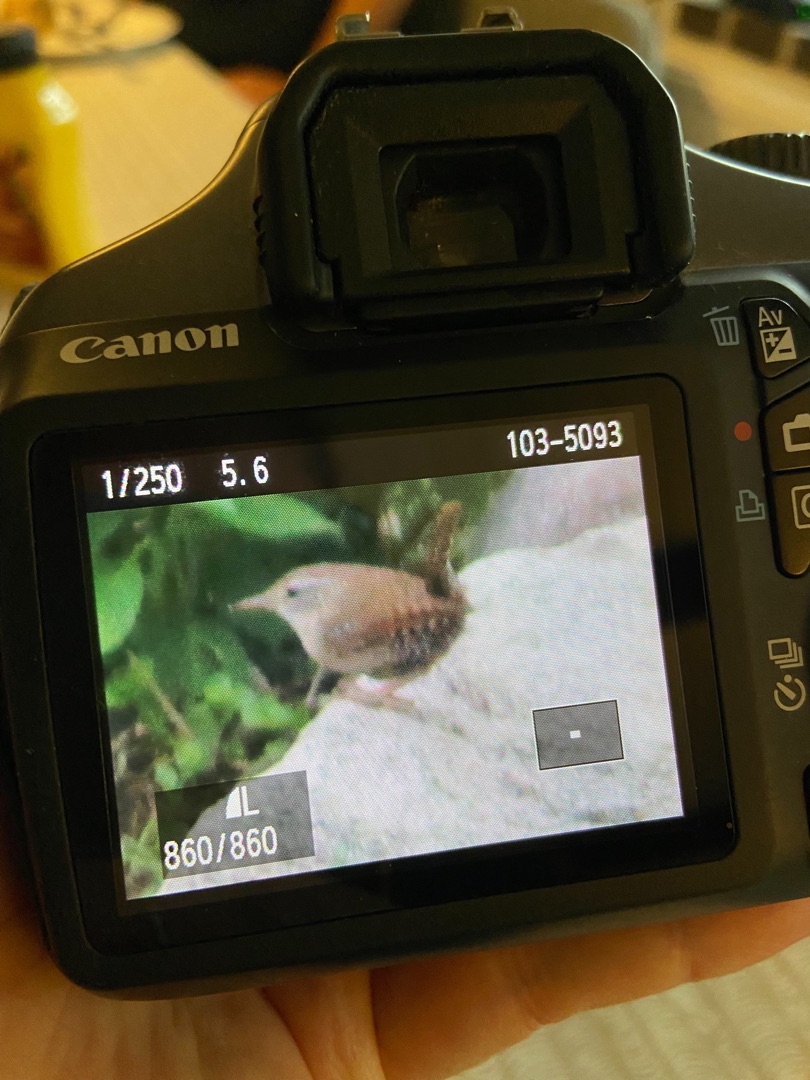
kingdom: Animalia
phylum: Chordata
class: Aves
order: Passeriformes
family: Troglodytidae
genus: Troglodytes
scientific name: Troglodytes troglodytes
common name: Gærdesmutte
